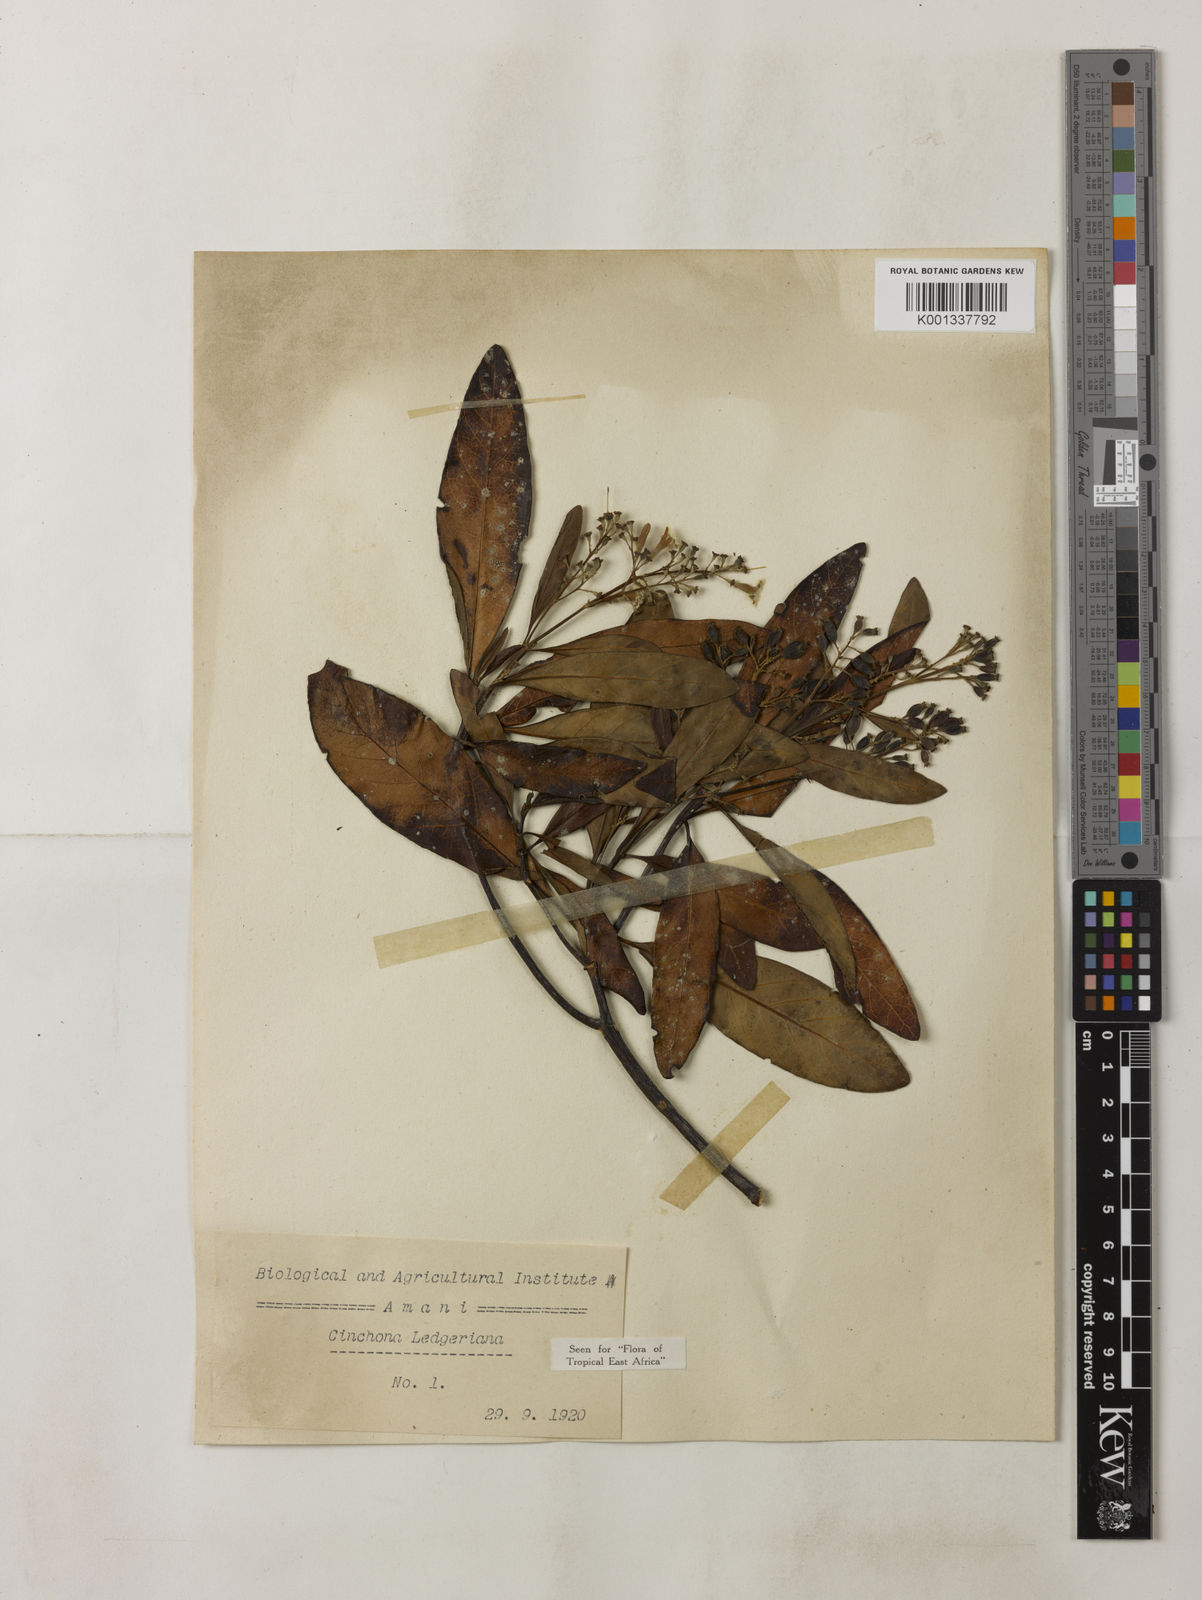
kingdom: Plantae
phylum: Tracheophyta
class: Magnoliopsida
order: Gentianales
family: Rubiaceae
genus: Cinchona
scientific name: Cinchona calisaya
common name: Ledgerbark
